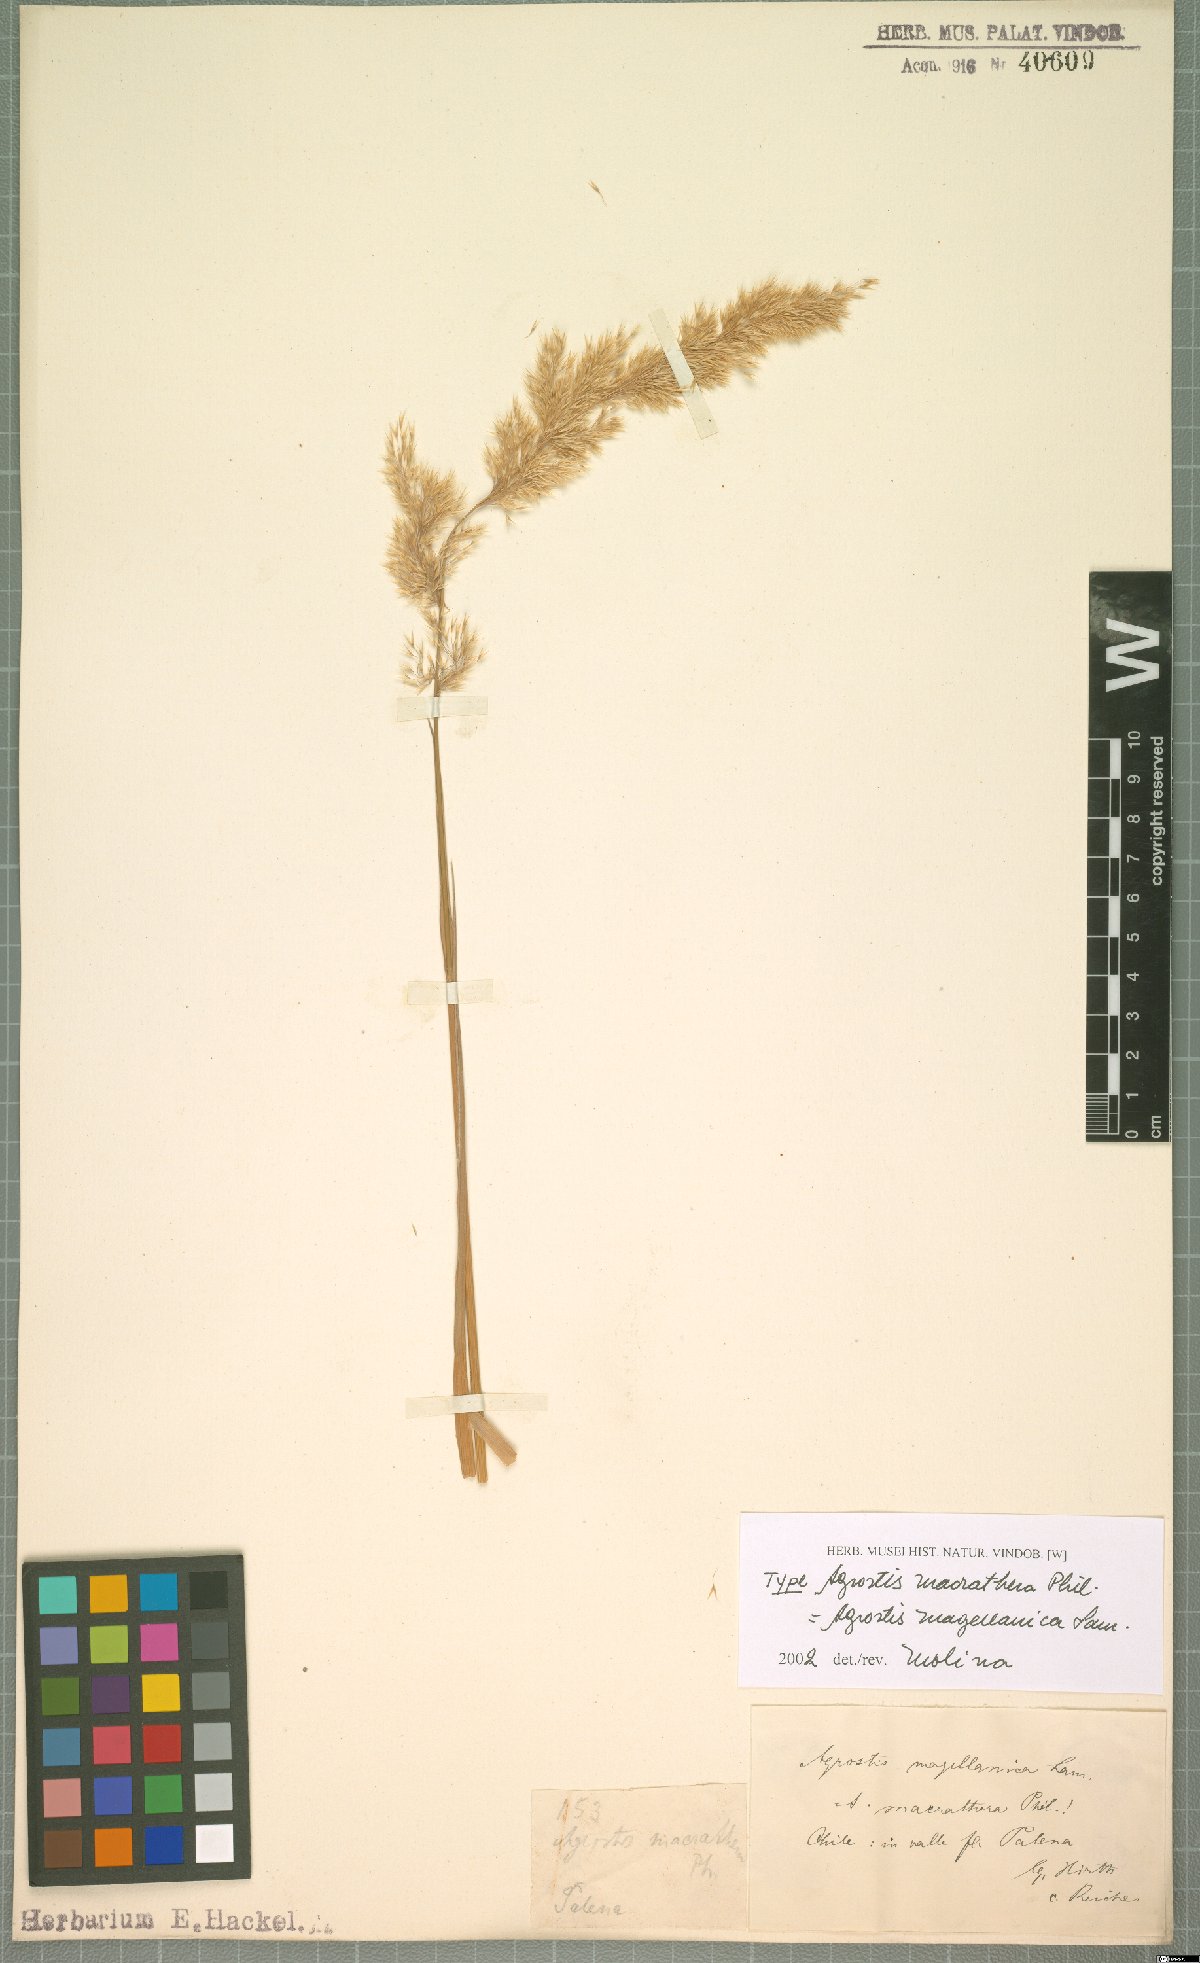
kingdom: Plantae
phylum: Tracheophyta
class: Liliopsida
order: Poales
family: Poaceae
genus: Polypogon
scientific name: Polypogon magellanicus
